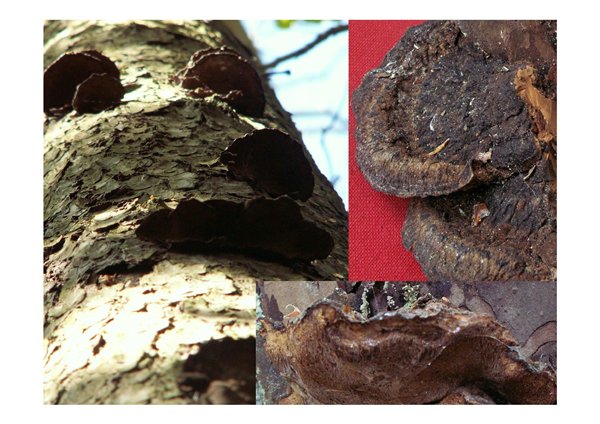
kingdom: Fungi
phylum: Basidiomycota
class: Agaricomycetes
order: Polyporales
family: Ischnodermataceae
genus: Ischnoderma
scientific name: Ischnoderma benzoinum
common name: gran-tjæreporesvamp
